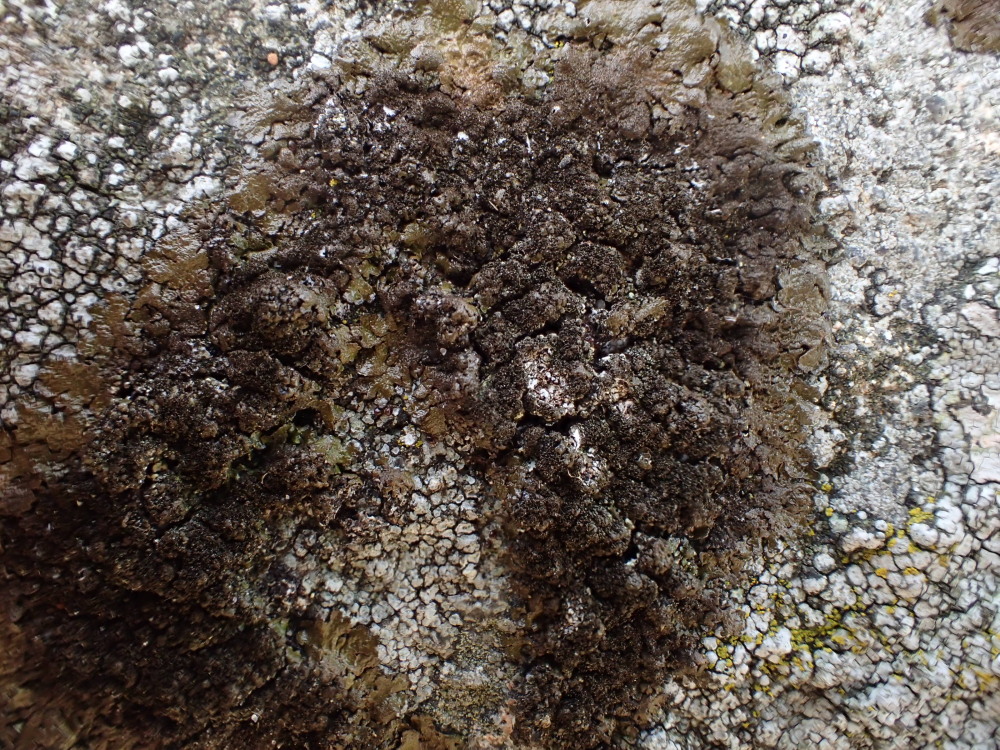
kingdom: Fungi
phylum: Ascomycota
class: Lecanoromycetes
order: Lecanorales
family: Parmeliaceae
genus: Melanelixia
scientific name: Melanelixia fuliginosa
